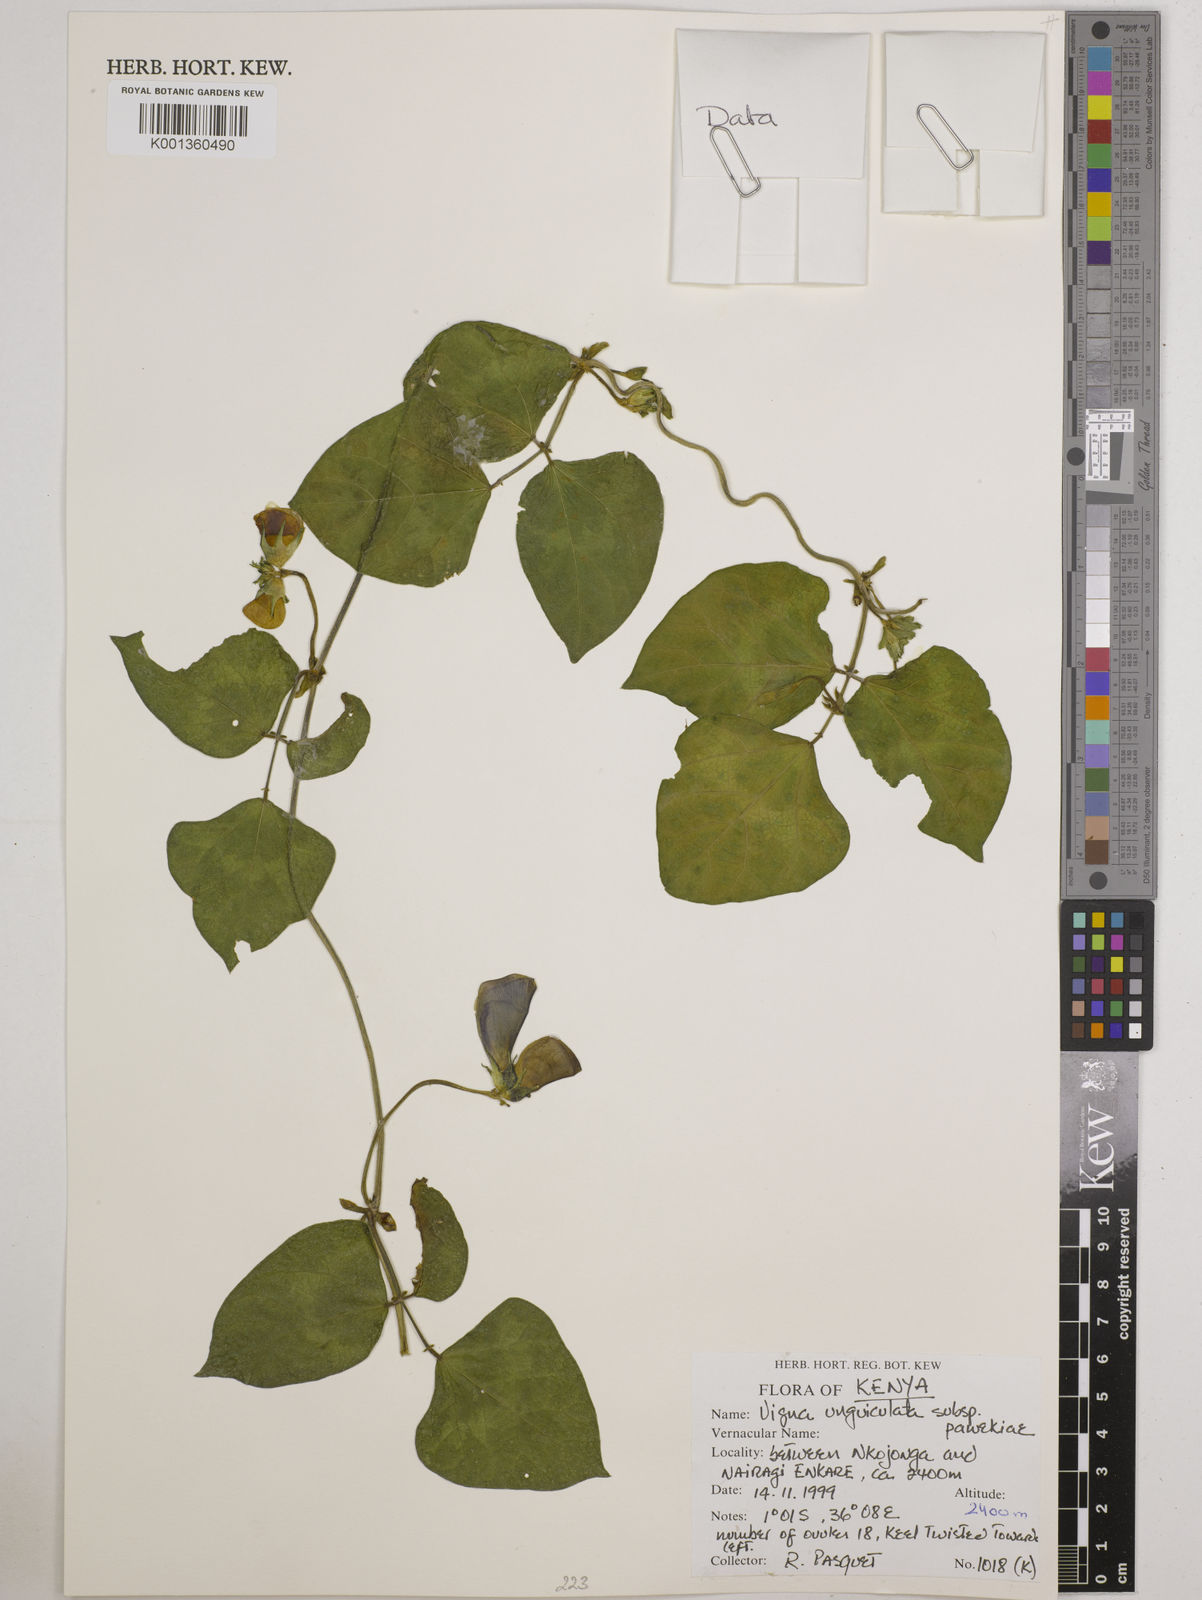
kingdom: Plantae
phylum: Tracheophyta
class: Magnoliopsida
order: Fabales
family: Fabaceae
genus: Vigna
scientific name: Vigna unguiculata
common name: Cowpea
